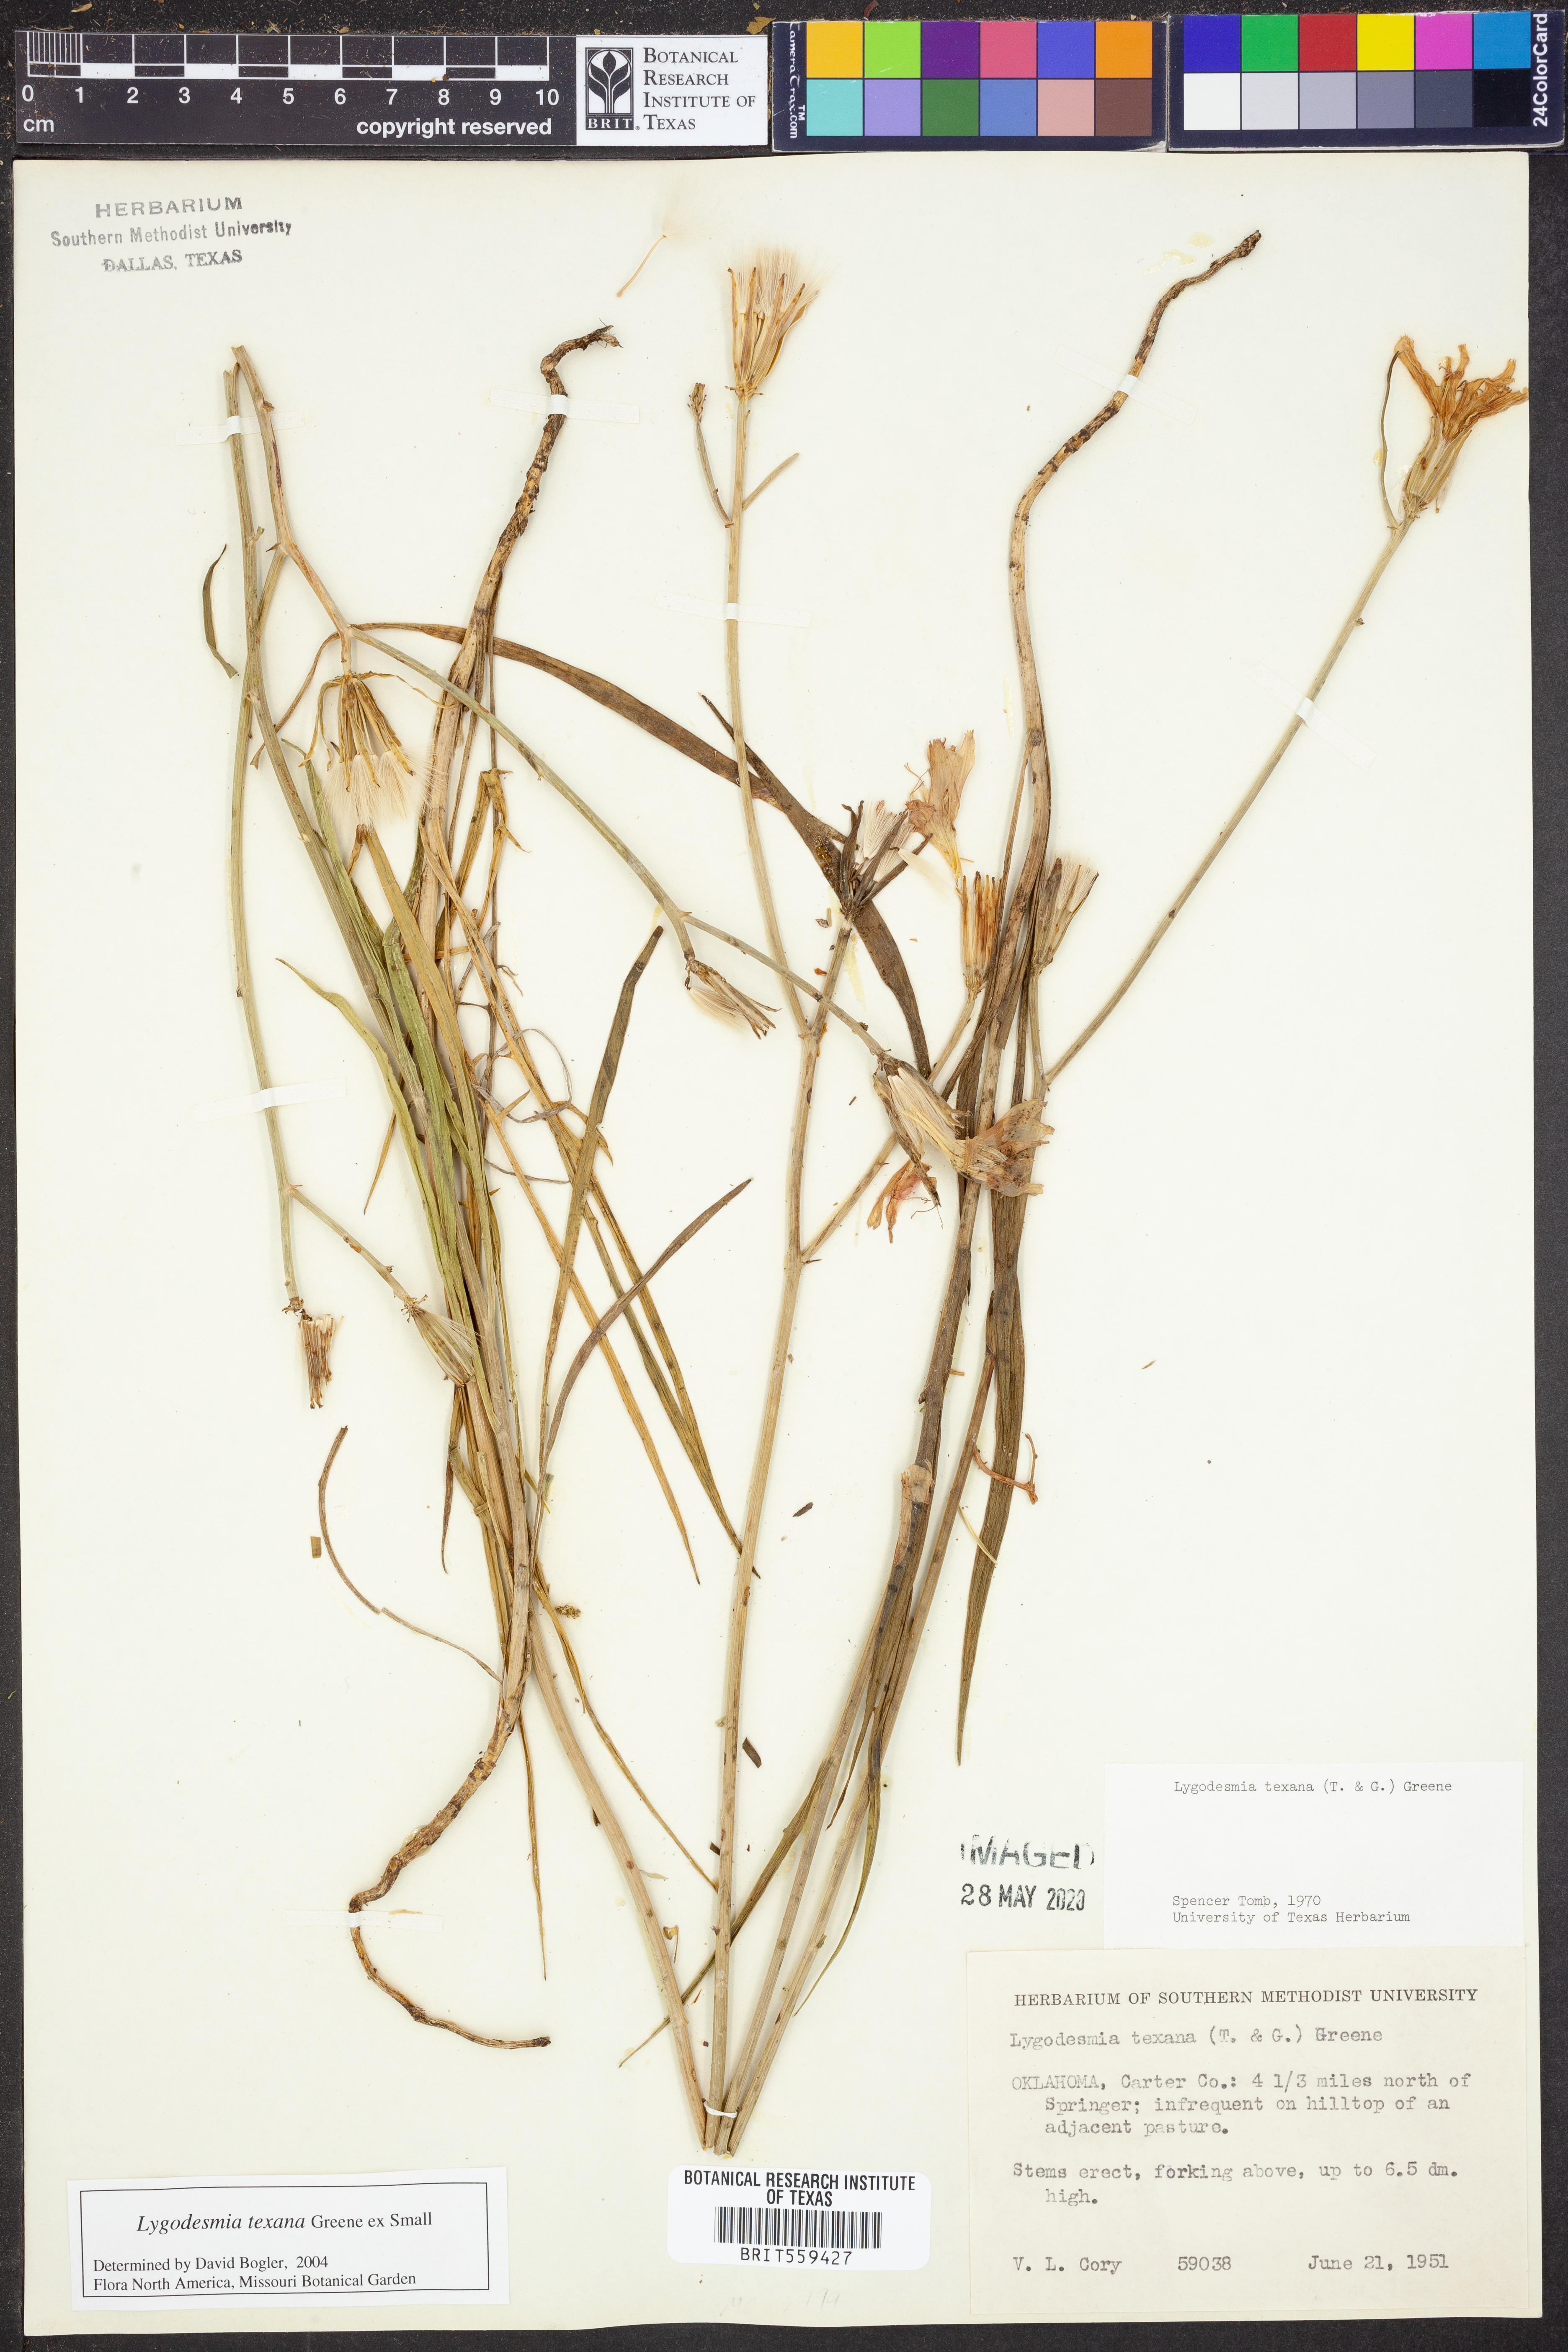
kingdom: Plantae
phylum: Tracheophyta
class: Magnoliopsida
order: Asterales
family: Asteraceae
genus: Lygodesmia
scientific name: Lygodesmia texana
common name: Texas skeleton-plant
